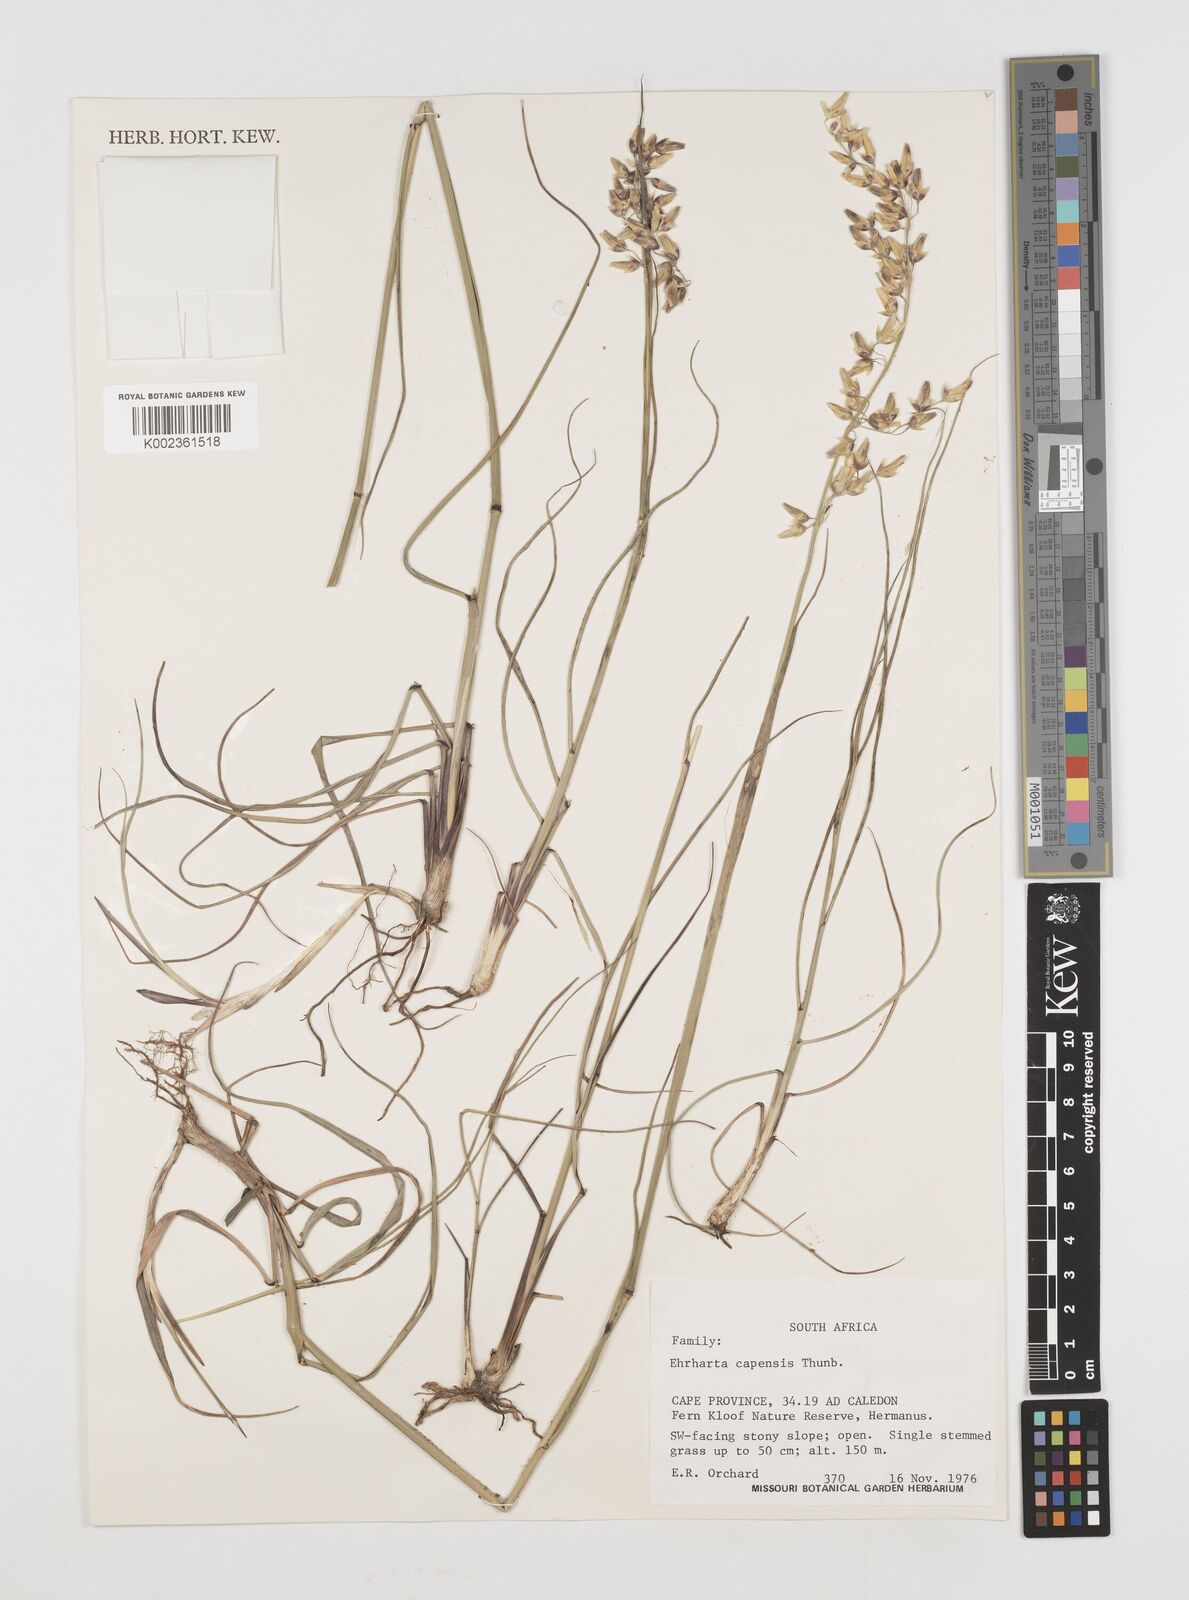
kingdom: Plantae
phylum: Tracheophyta
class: Liliopsida
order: Poales
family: Poaceae
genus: Ehrharta
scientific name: Ehrharta capensis
